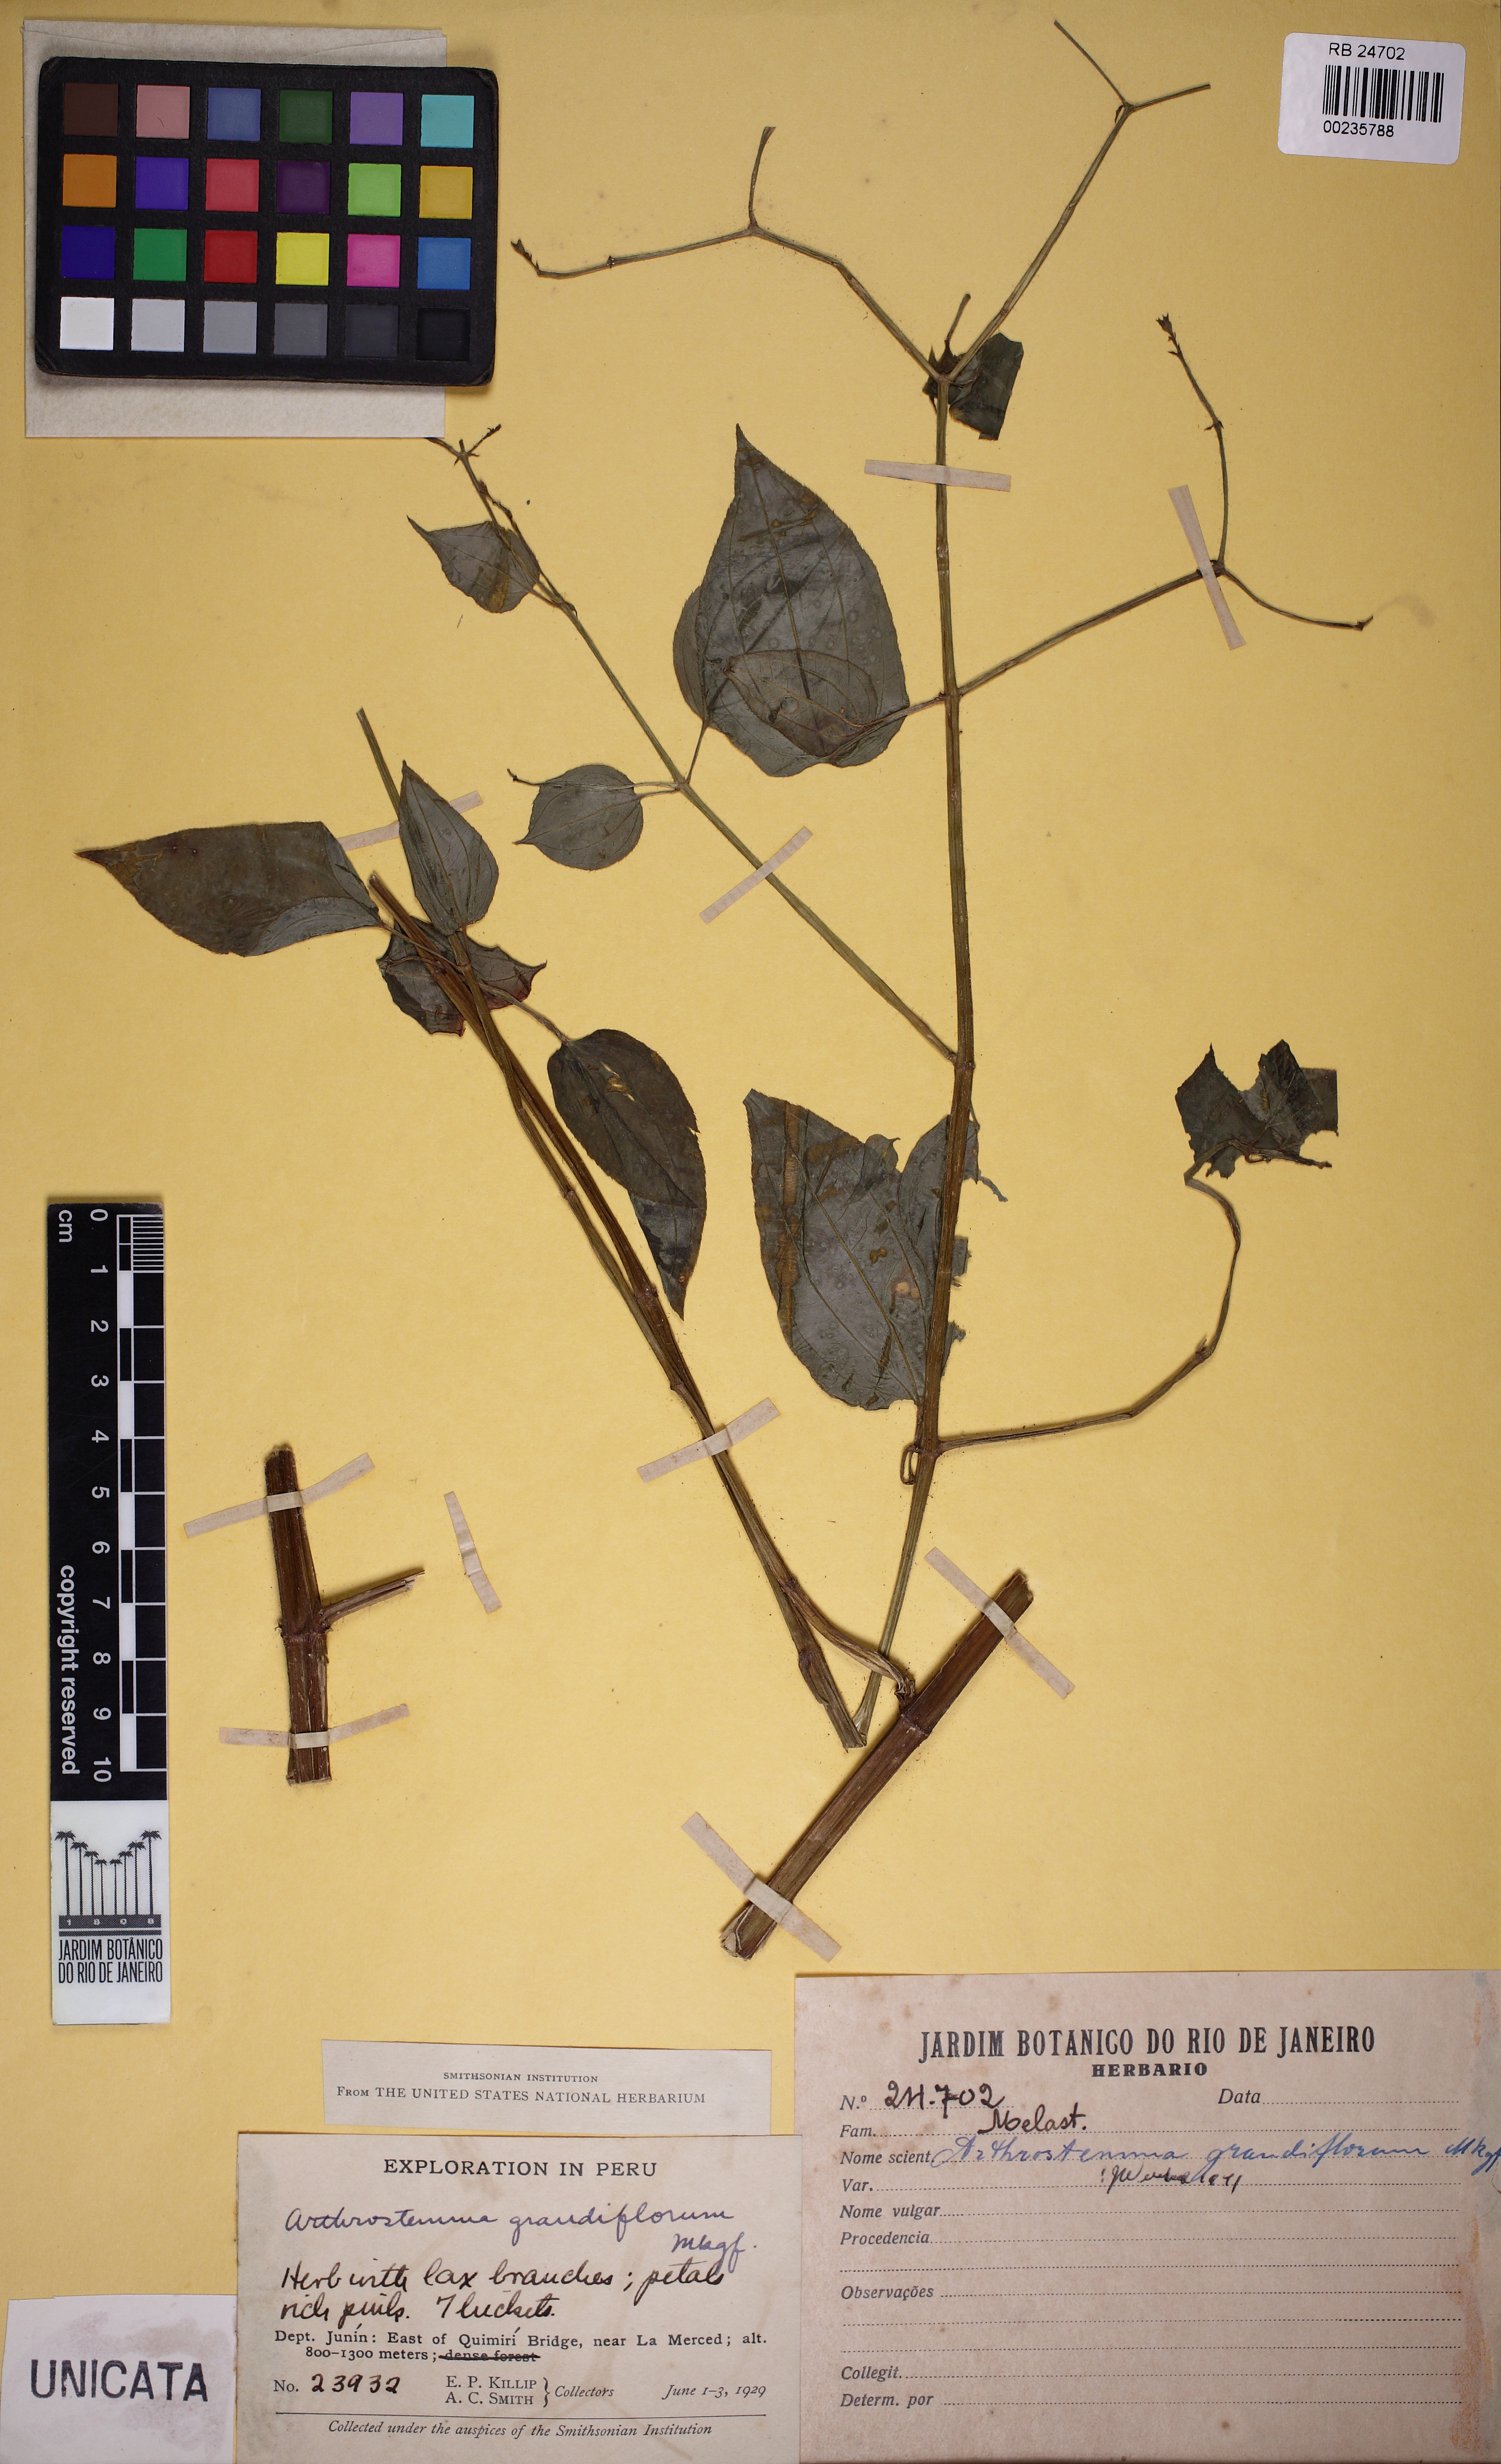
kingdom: Plantae
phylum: Tracheophyta
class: Magnoliopsida
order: Myrtales
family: Melastomataceae
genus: Arthrostemma
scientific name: Arthrostemma ciliatum
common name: Everblooming eavender
